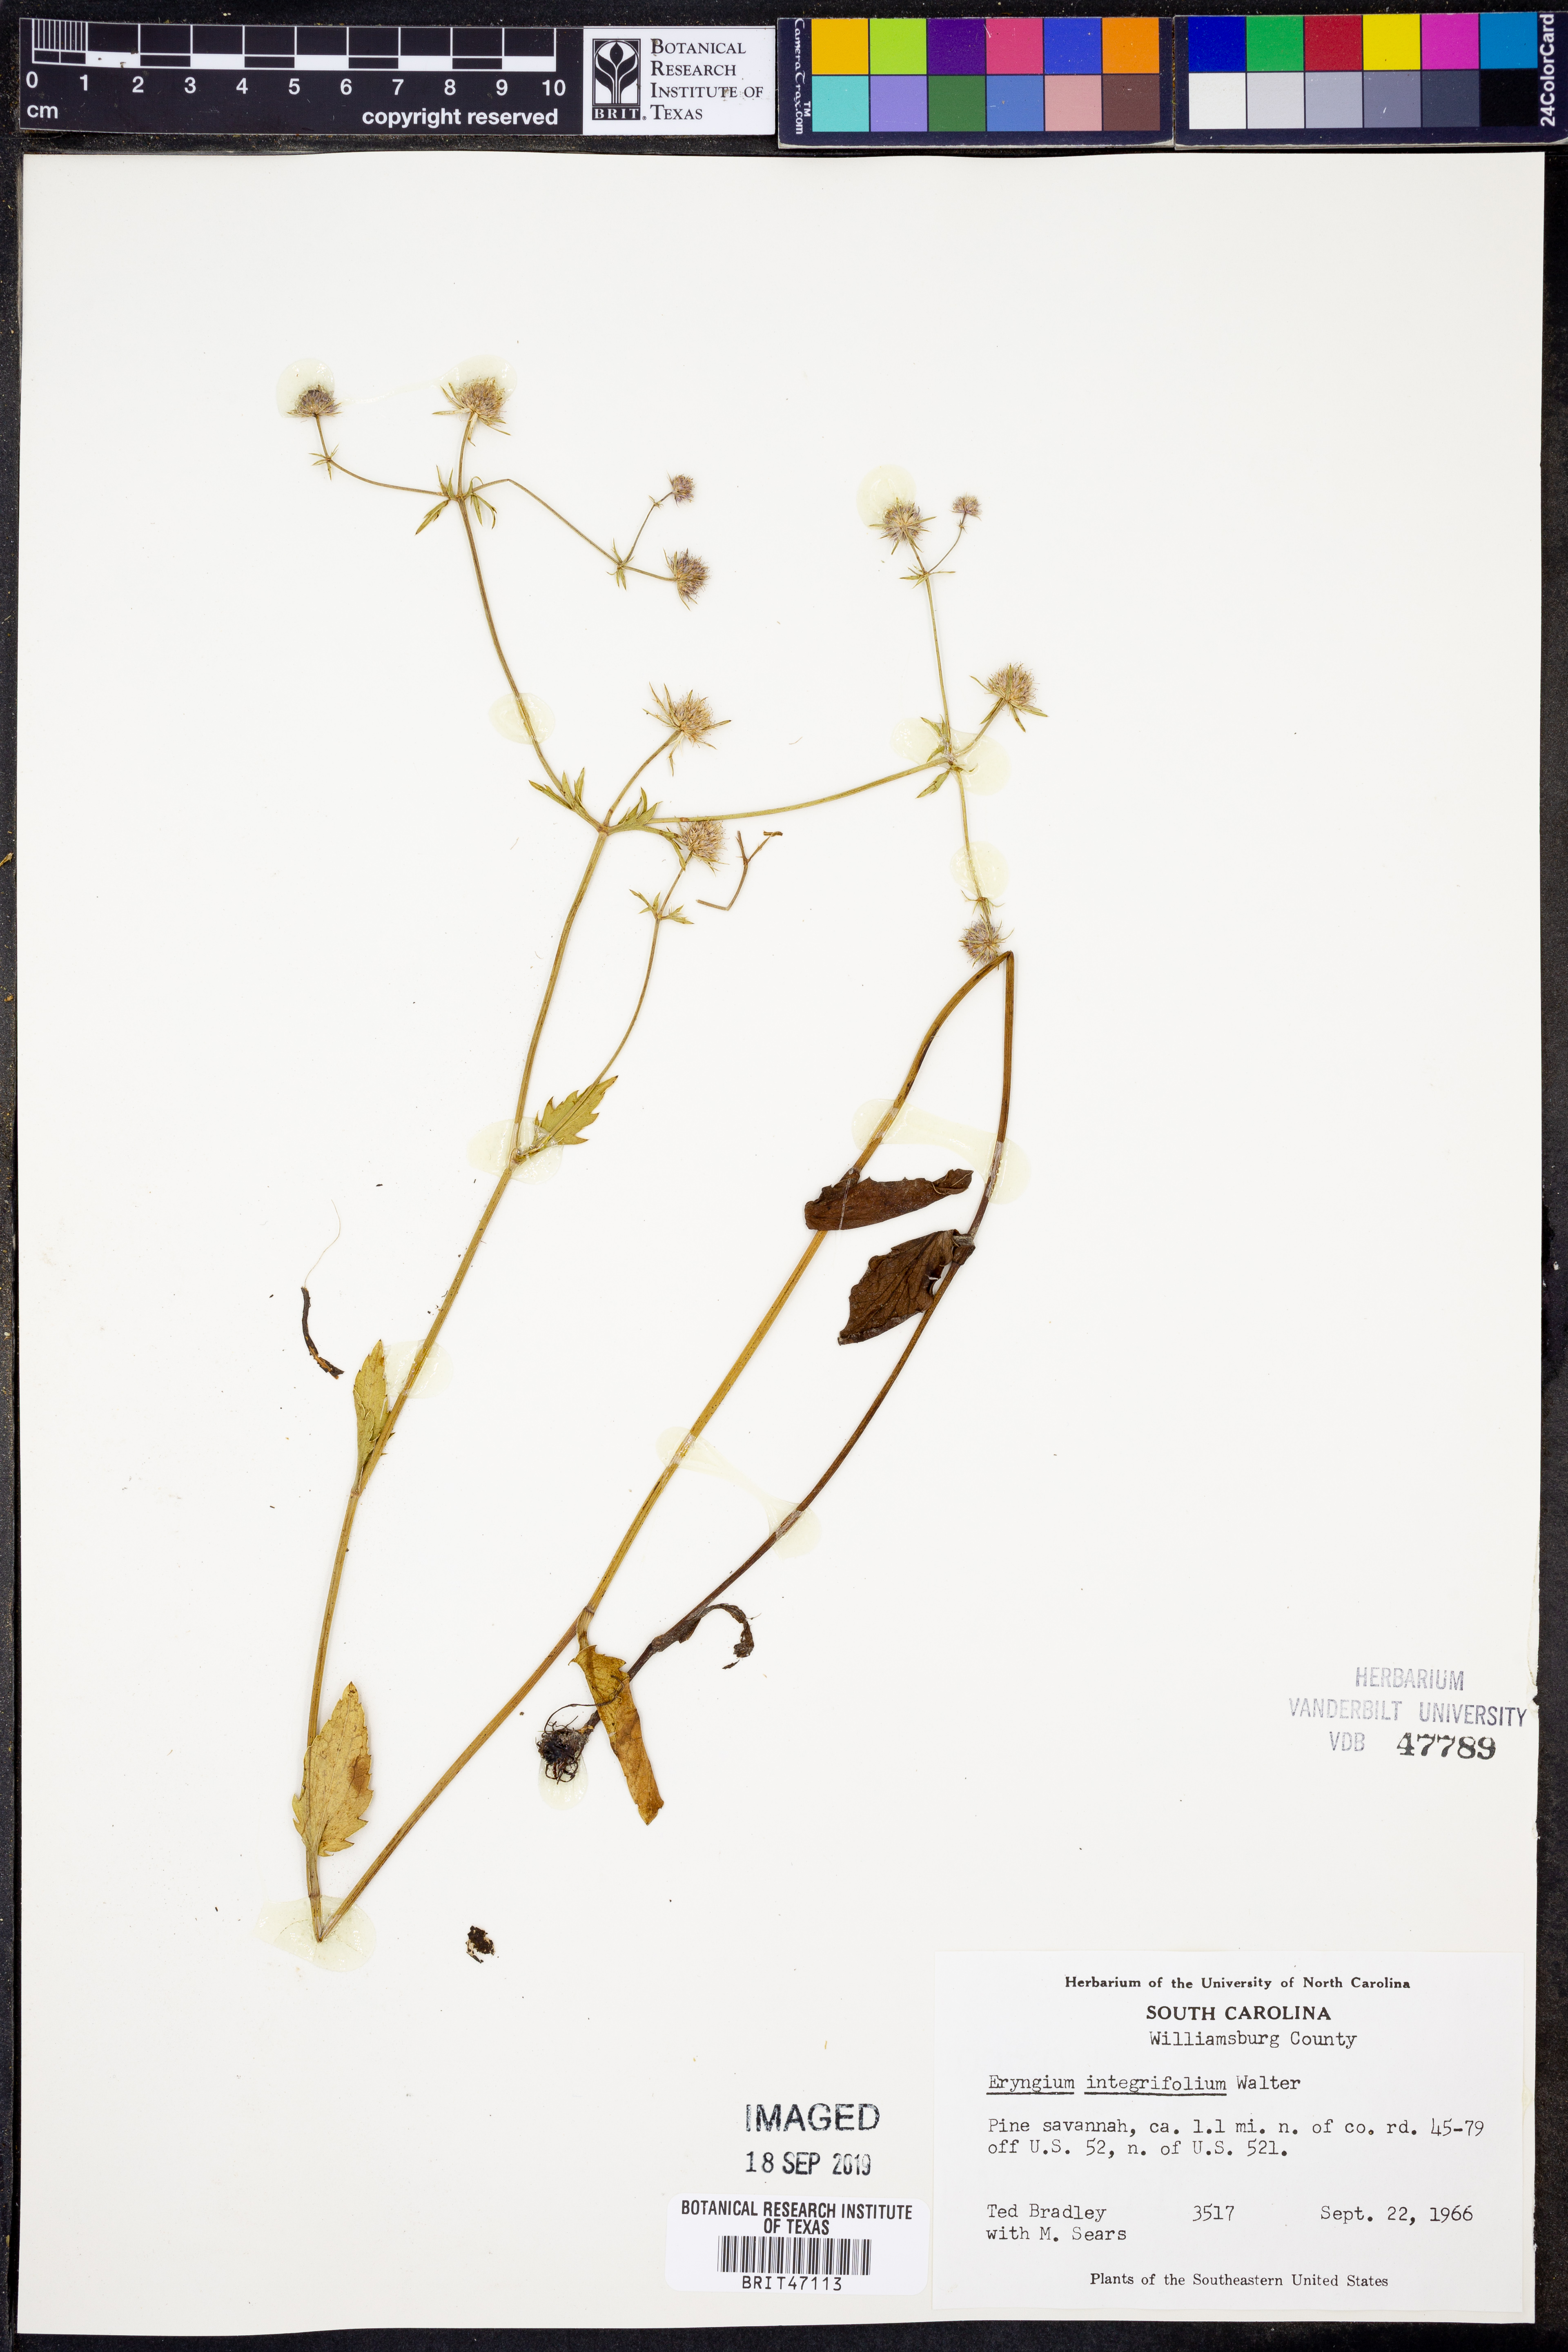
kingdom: Plantae
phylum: Tracheophyta
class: Magnoliopsida
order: Apiales
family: Apiaceae
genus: Eryngium
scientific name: Eryngium integrifolium
